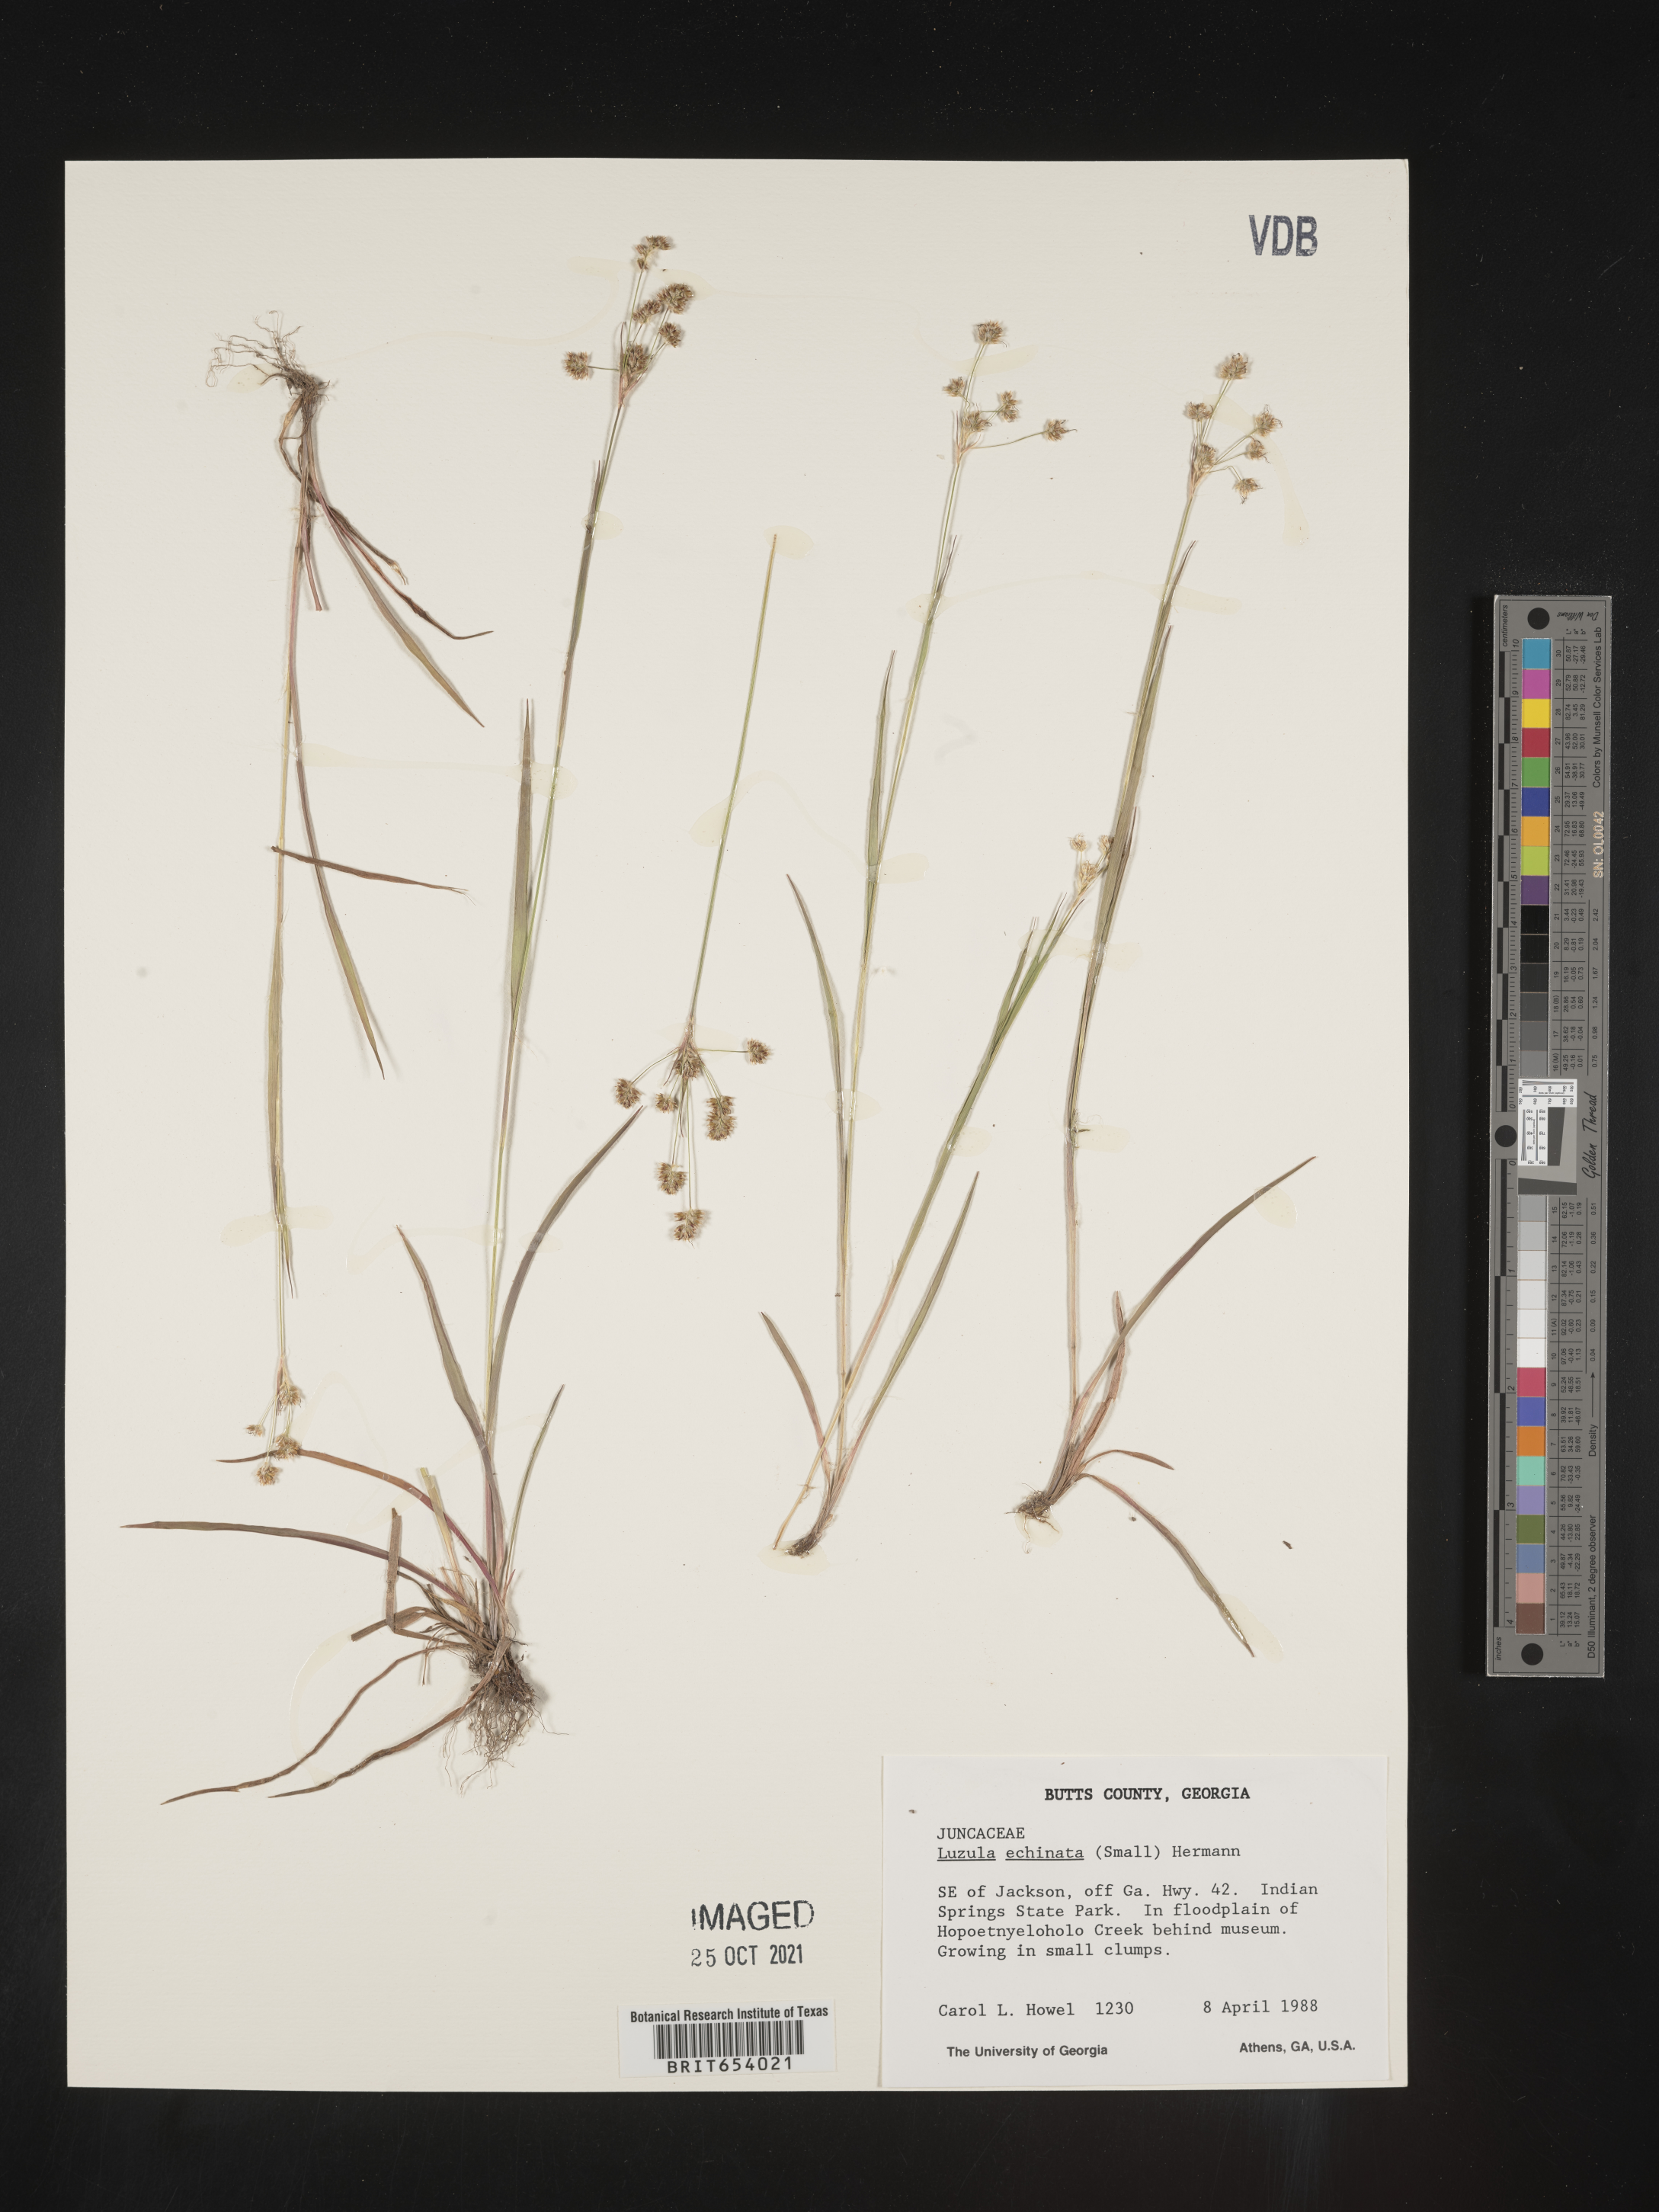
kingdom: Plantae
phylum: Tracheophyta
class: Liliopsida
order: Poales
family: Juncaceae
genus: Luzula
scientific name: Luzula echinata
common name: Hedgehog woodrush
